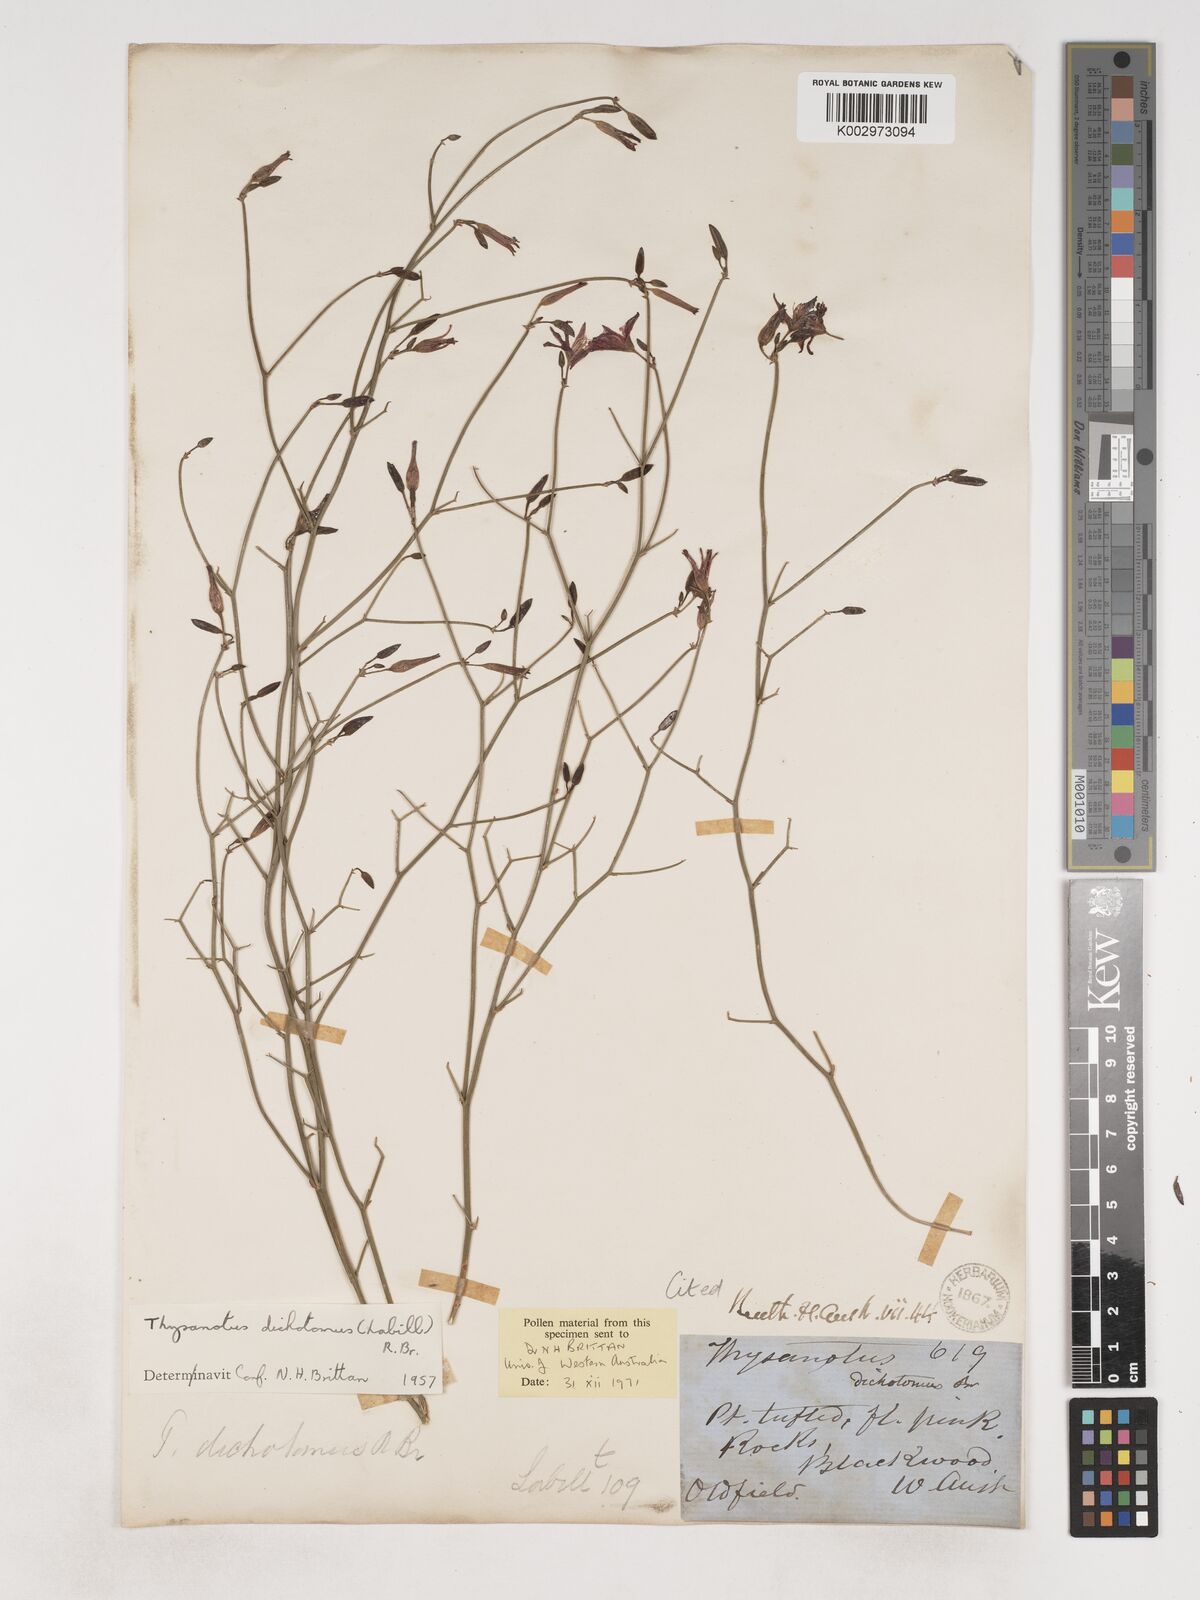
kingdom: Plantae
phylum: Tracheophyta
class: Liliopsida
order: Asparagales
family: Asparagaceae
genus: Thysanotus
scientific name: Thysanotus dichotomus
